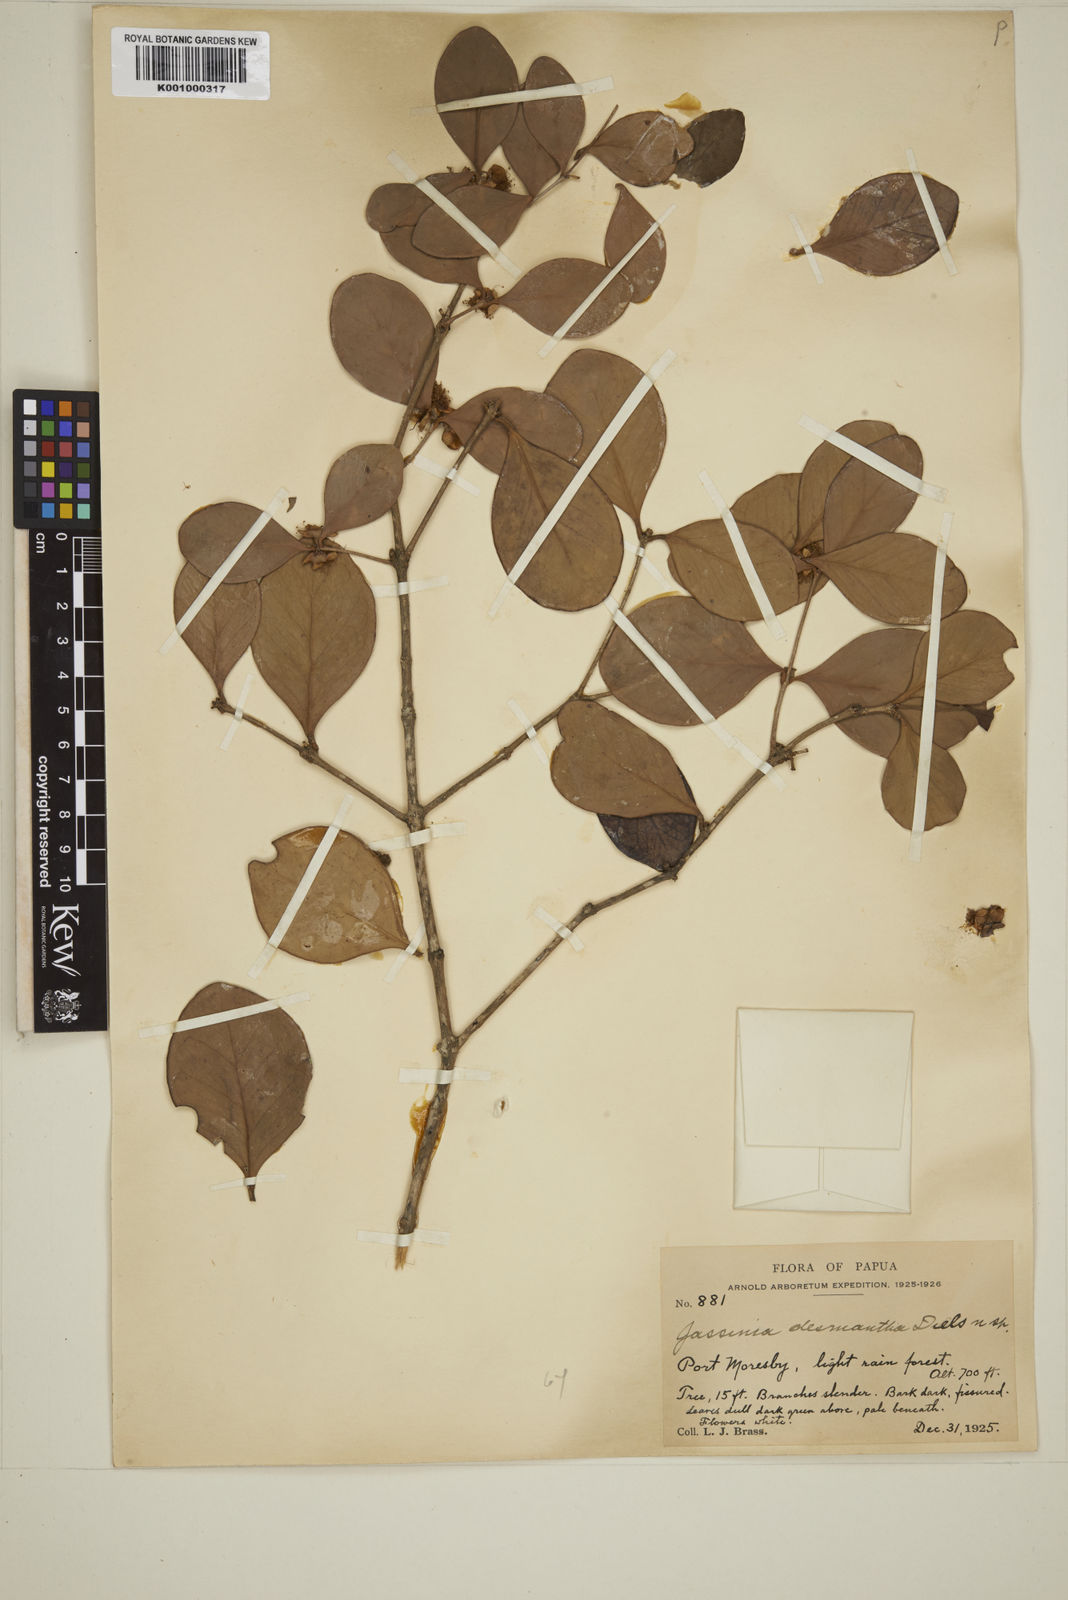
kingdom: Plantae
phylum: Tracheophyta
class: Magnoliopsida
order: Myrtales
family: Myrtaceae
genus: Eugenia
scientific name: Eugenia reinwardtiana
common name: Cedar bay-cherry
